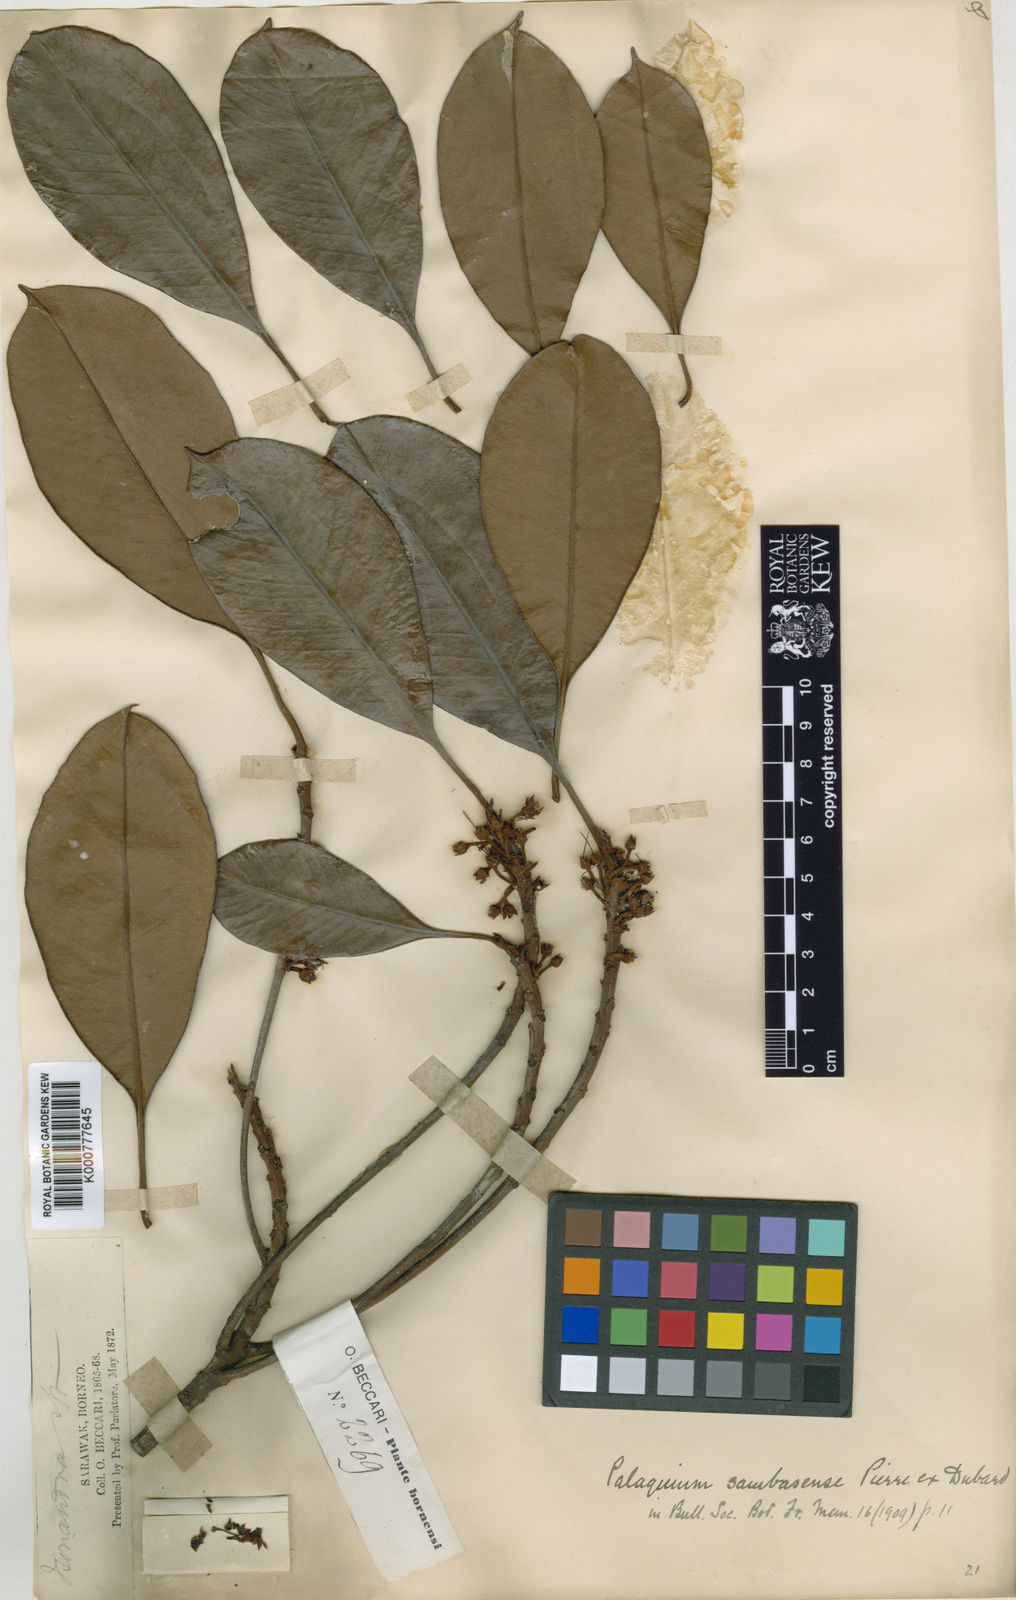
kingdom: Plantae
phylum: Tracheophyta
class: Magnoliopsida
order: Ericales
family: Sapotaceae
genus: Palaquium
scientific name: Palaquium
